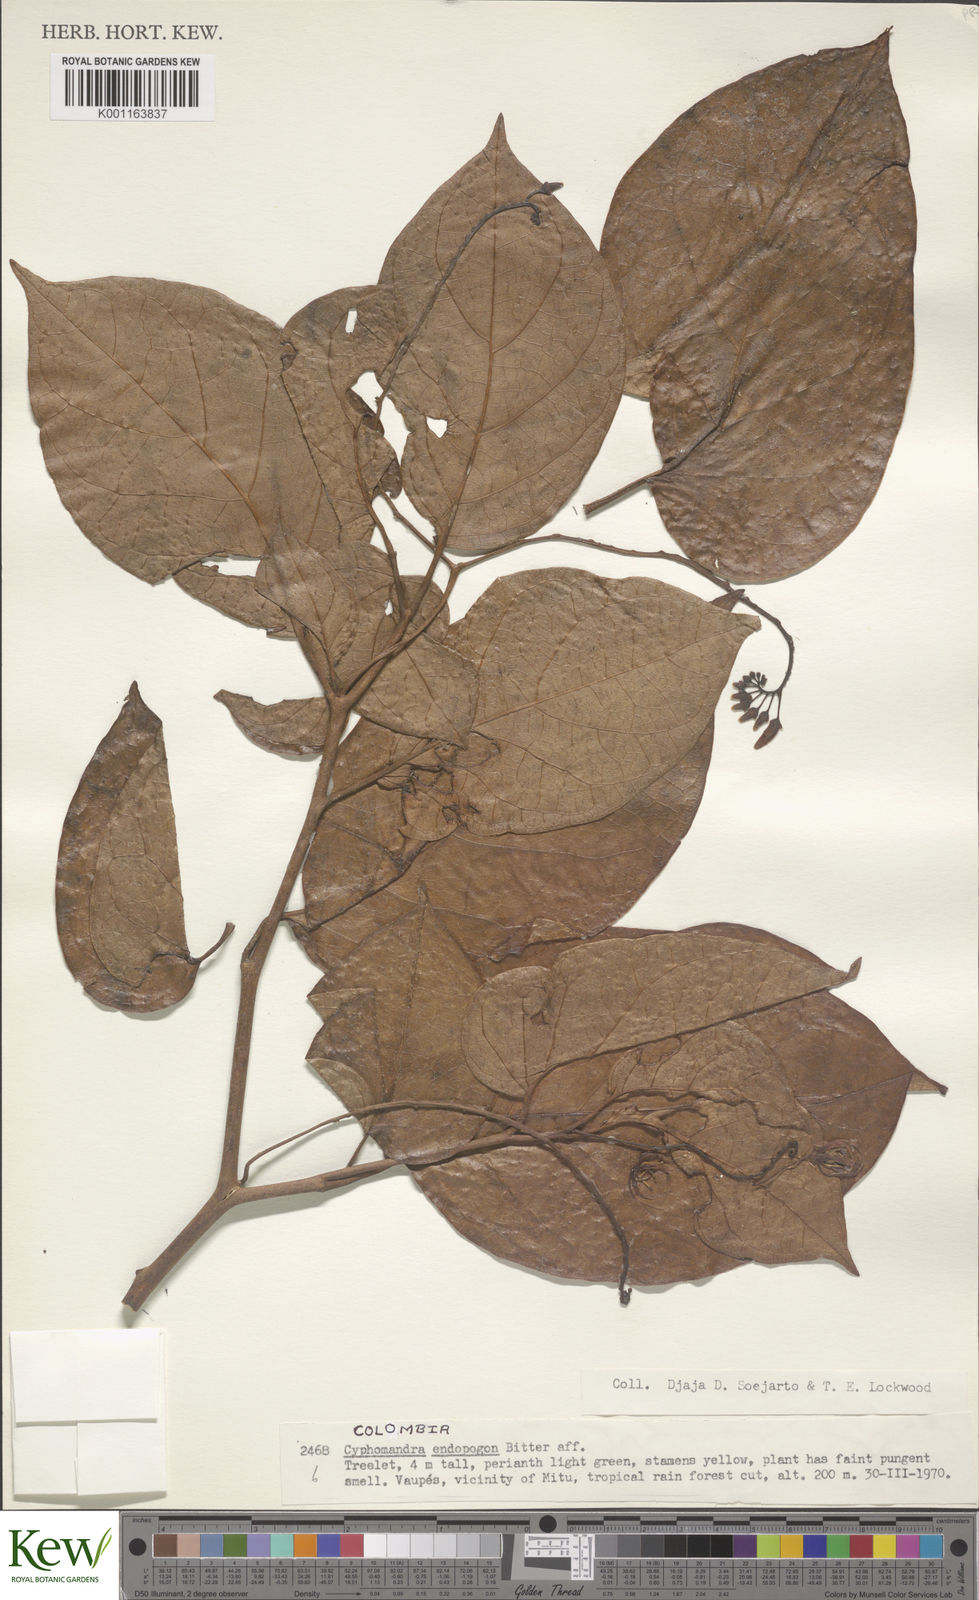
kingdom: Plantae
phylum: Tracheophyta
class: Magnoliopsida
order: Solanales
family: Solanaceae
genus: Solanum
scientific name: Solanum endopogon
